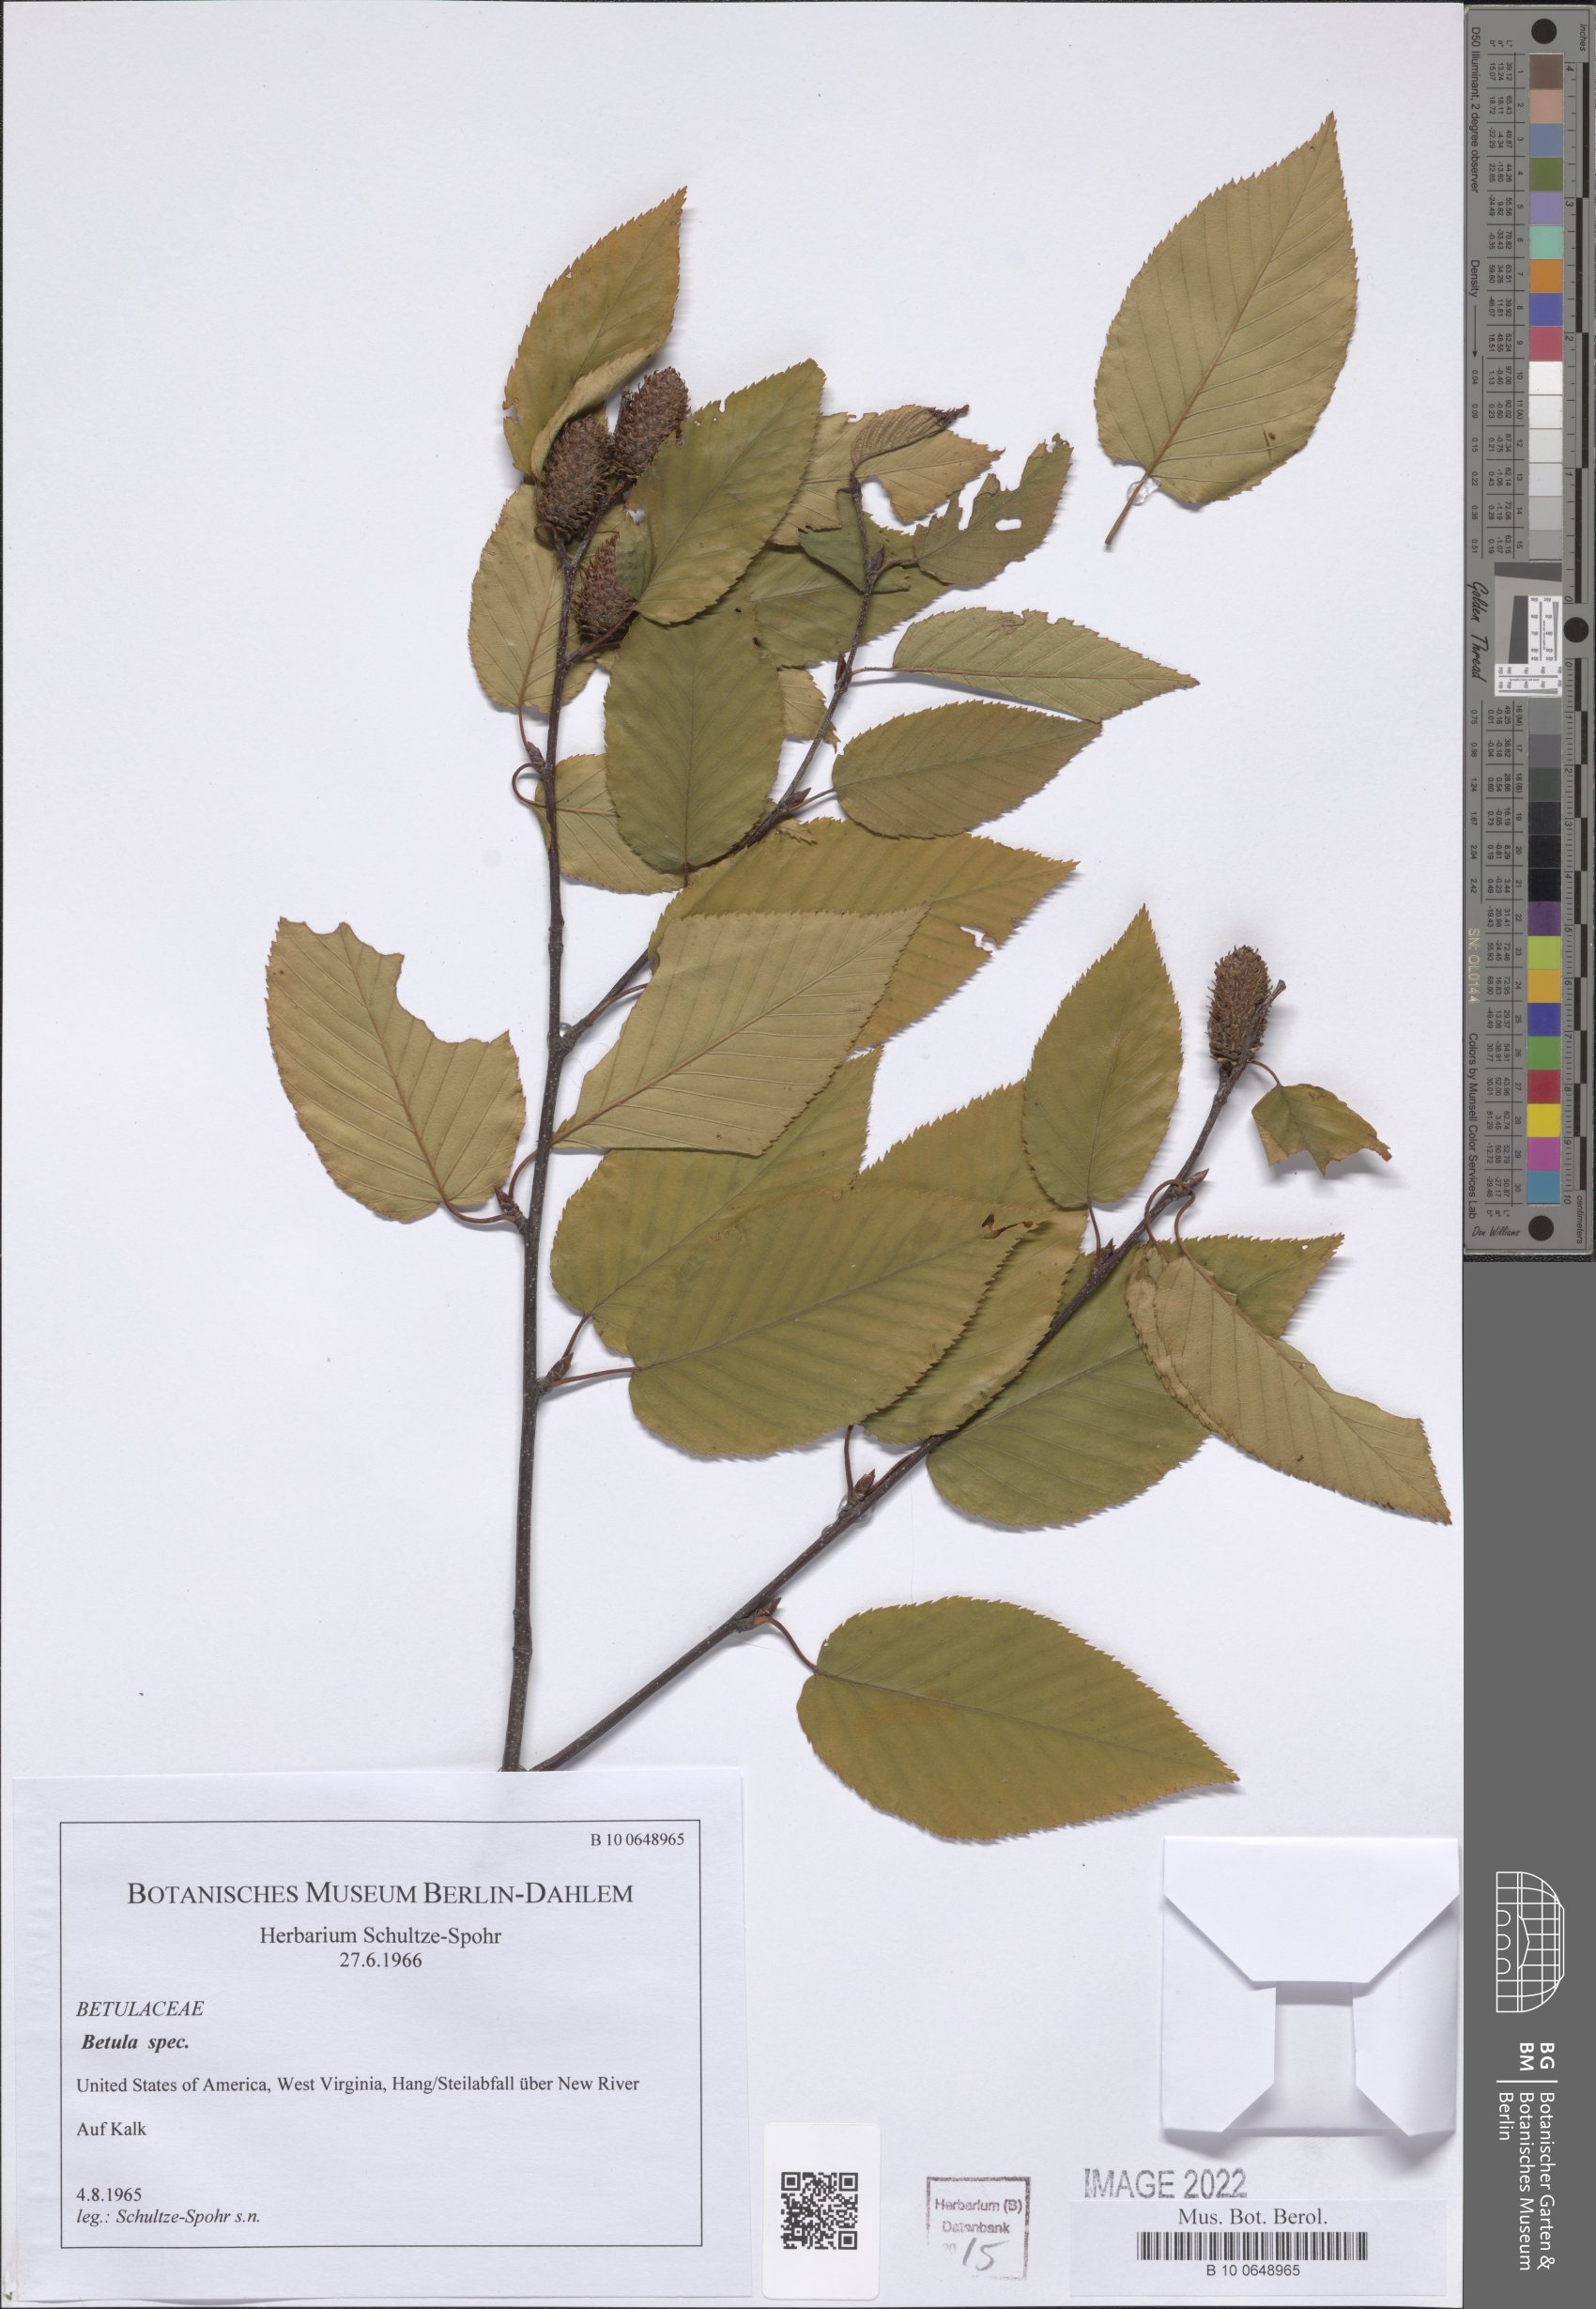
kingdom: Plantae
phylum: Tracheophyta
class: Magnoliopsida
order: Fagales
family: Betulaceae
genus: Betula
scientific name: Betula
